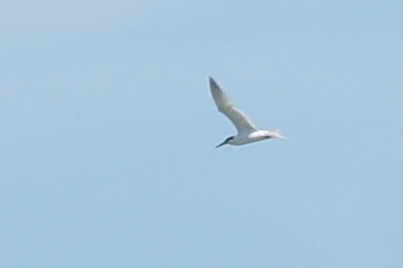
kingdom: Animalia
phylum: Chordata
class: Aves
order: Charadriiformes
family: Laridae
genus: Thalasseus
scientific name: Thalasseus sandvicensis
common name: Splitterne
